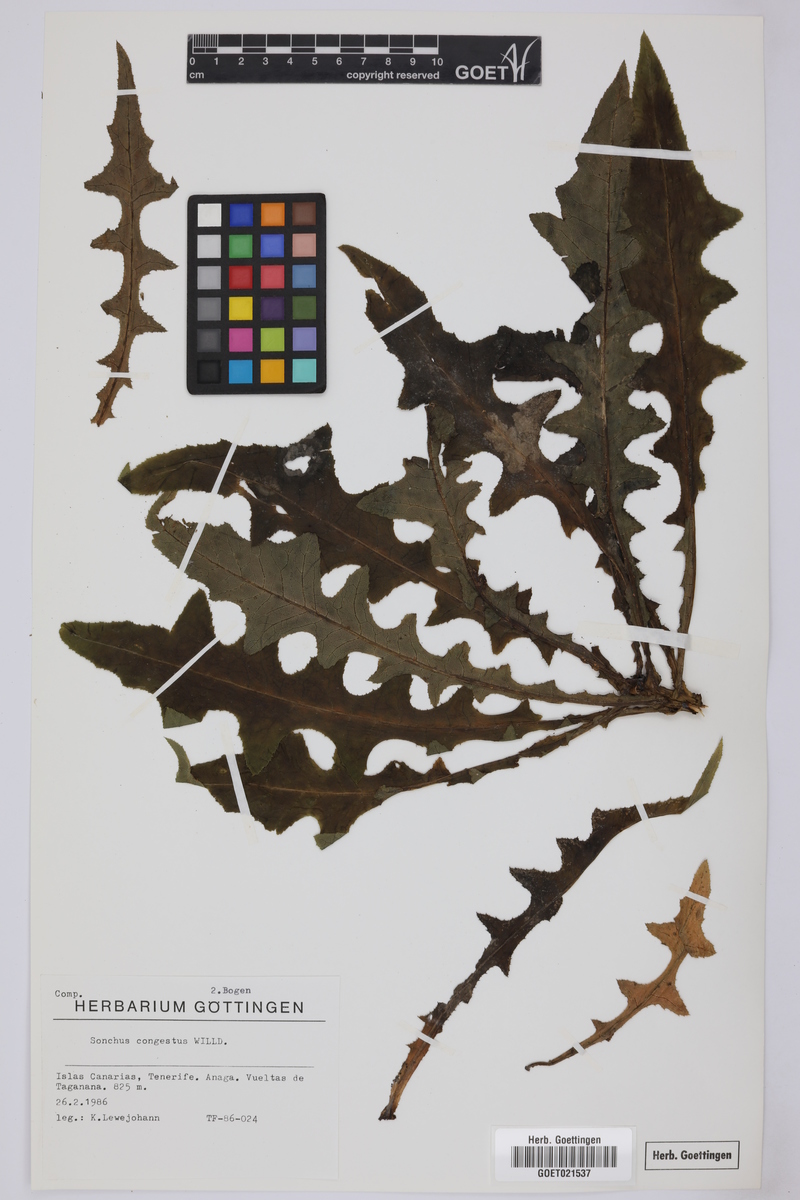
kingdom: Plantae
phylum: Tracheophyta
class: Magnoliopsida
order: Asterales
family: Asteraceae
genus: Sonchus
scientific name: Sonchus congestus
